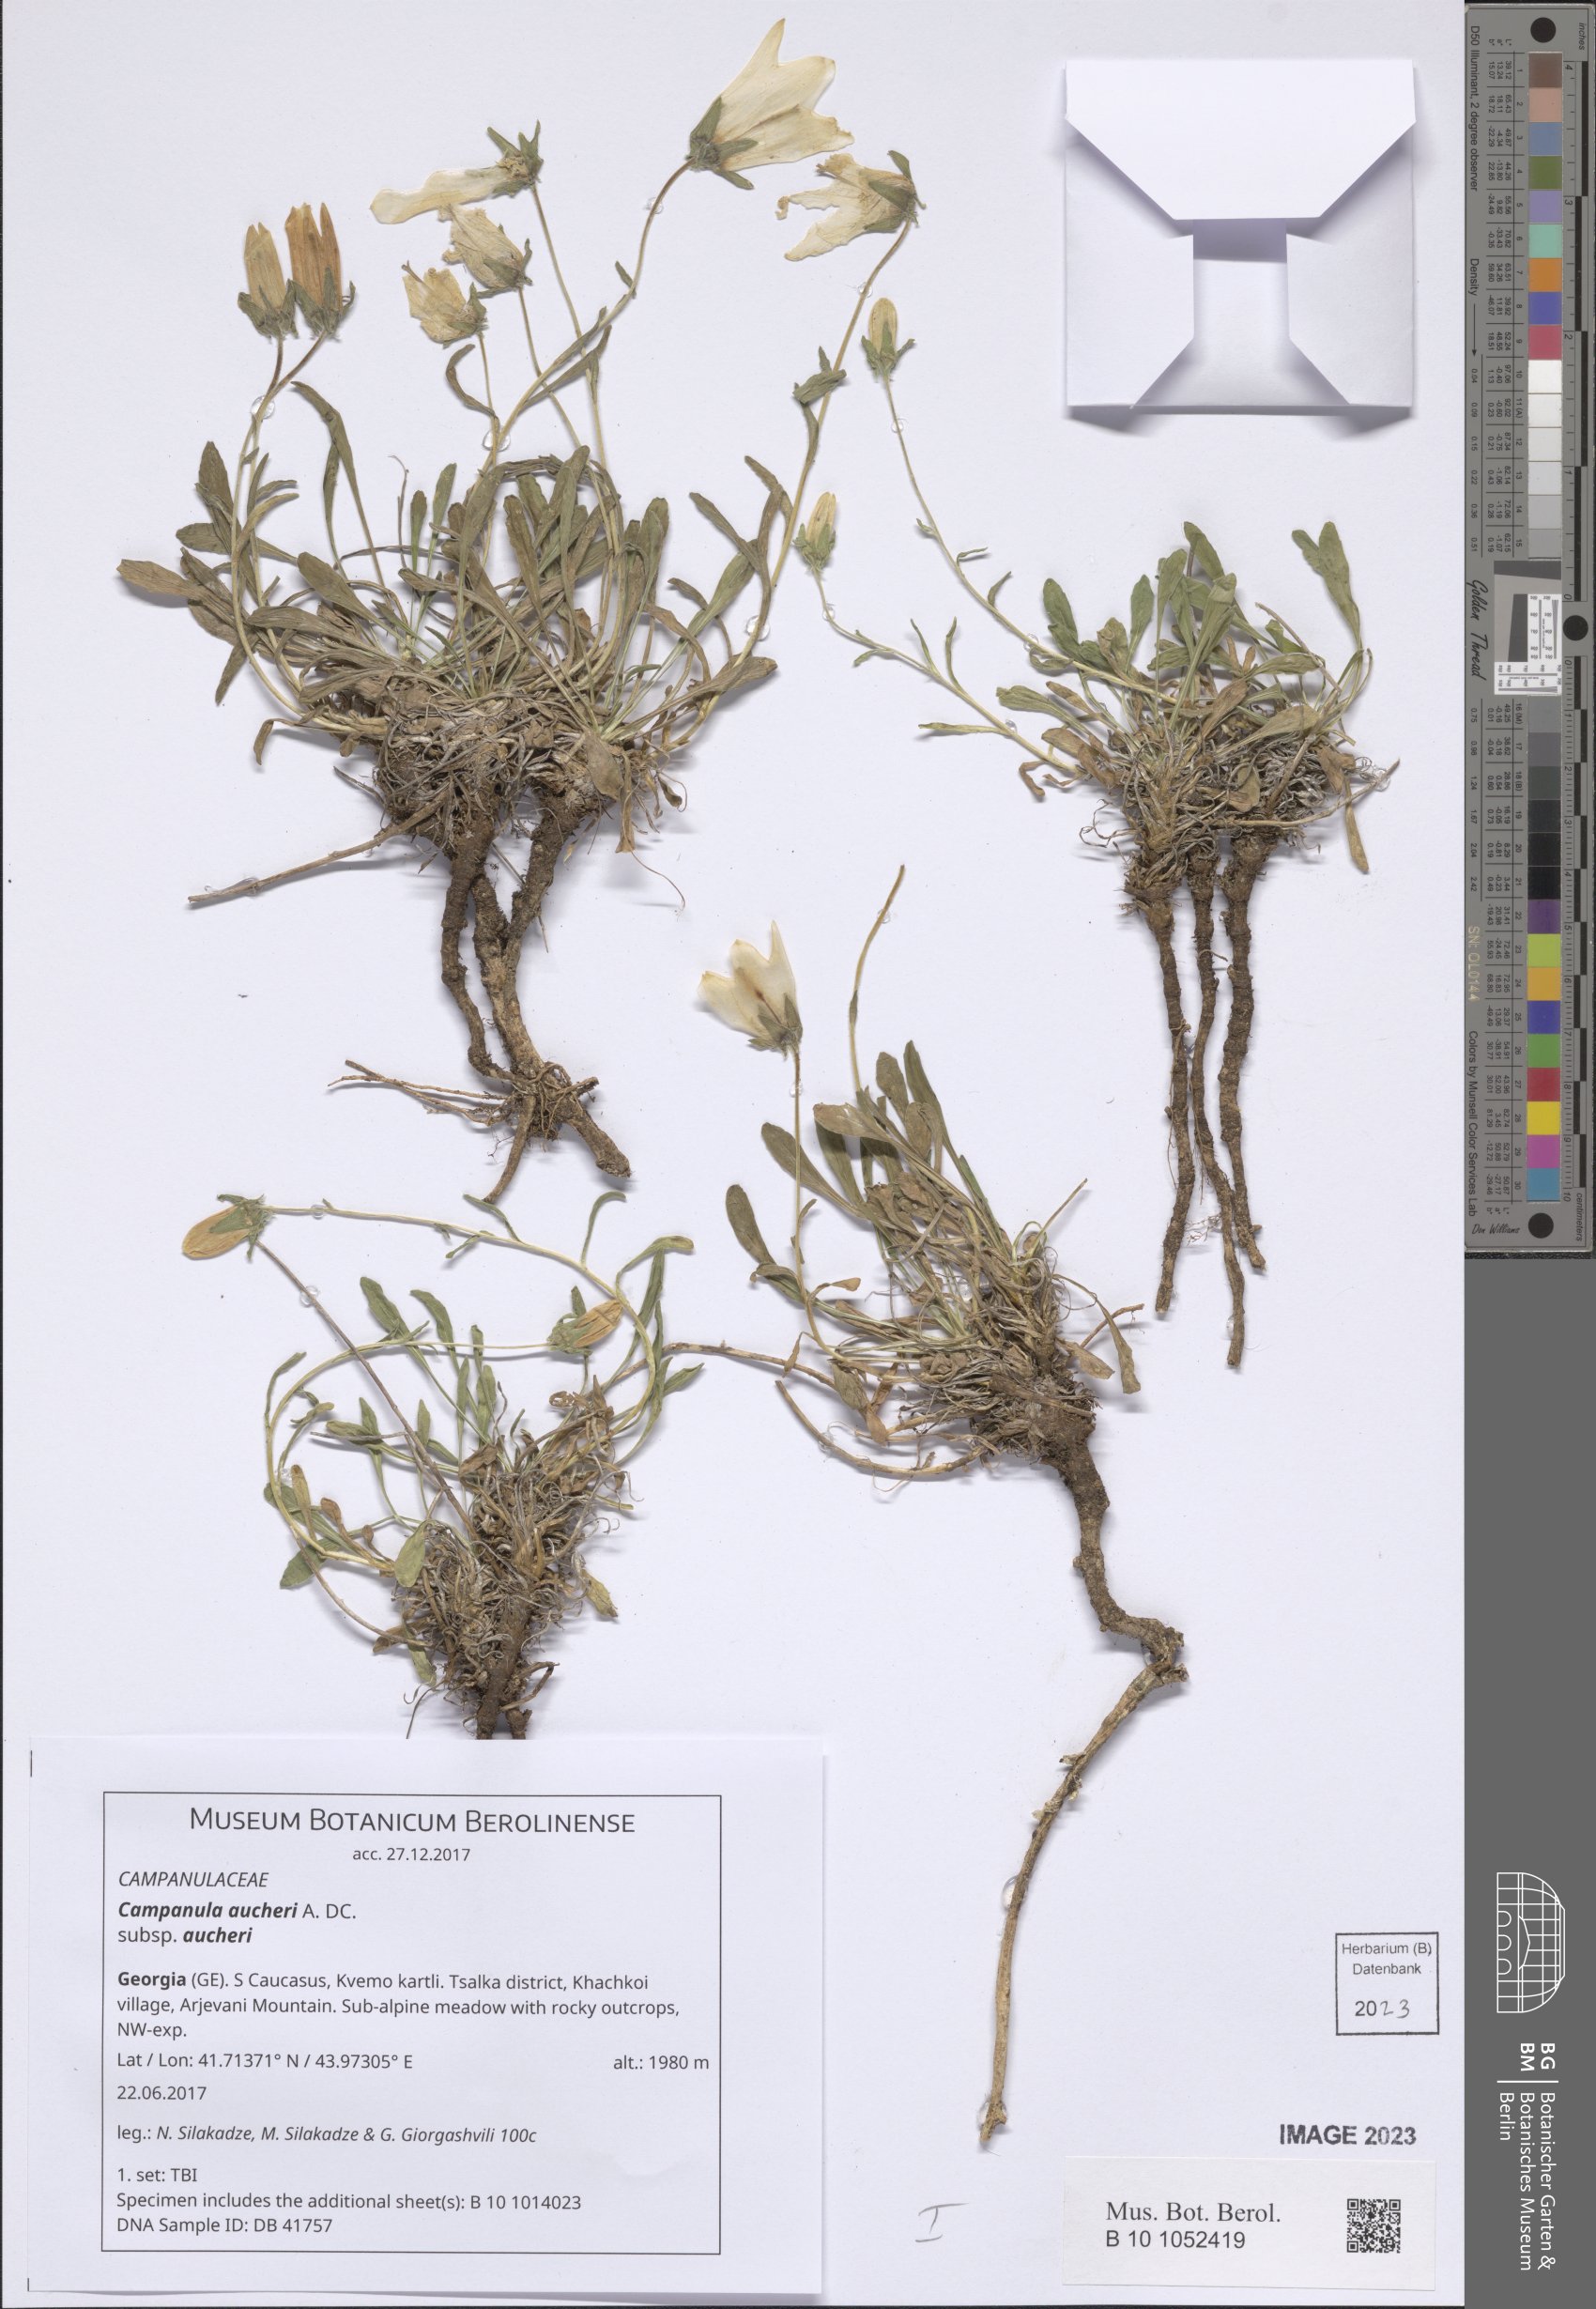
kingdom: Plantae
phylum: Tracheophyta
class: Magnoliopsida
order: Asterales
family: Campanulaceae
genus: Campanula
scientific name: Campanula saxifraga
